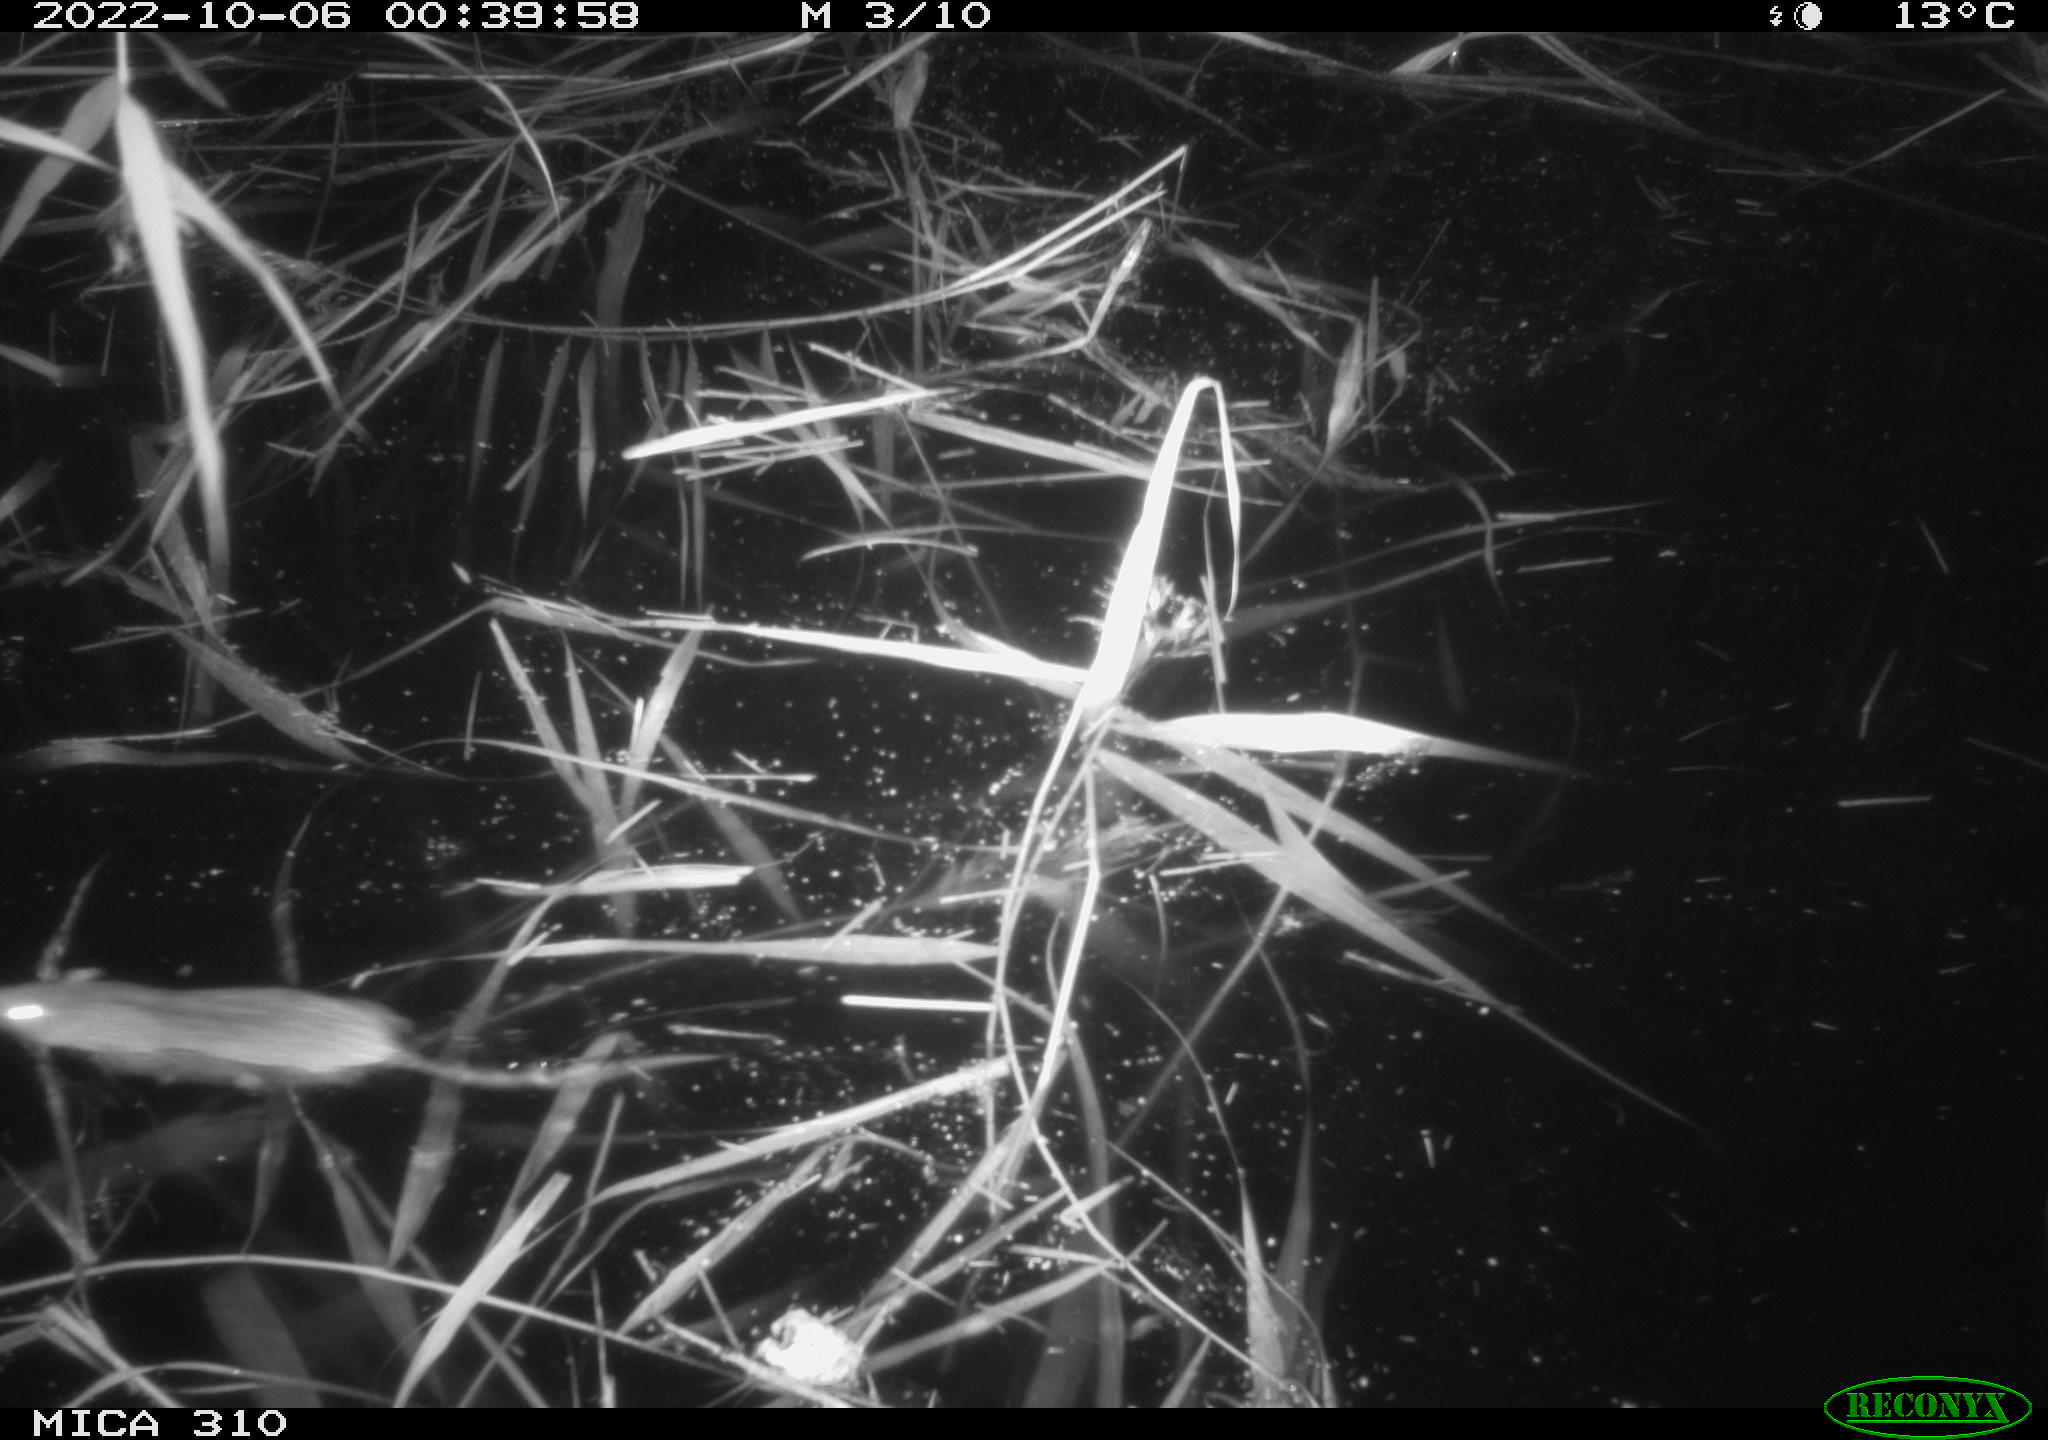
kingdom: Animalia
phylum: Chordata
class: Mammalia
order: Rodentia
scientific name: Rodentia
